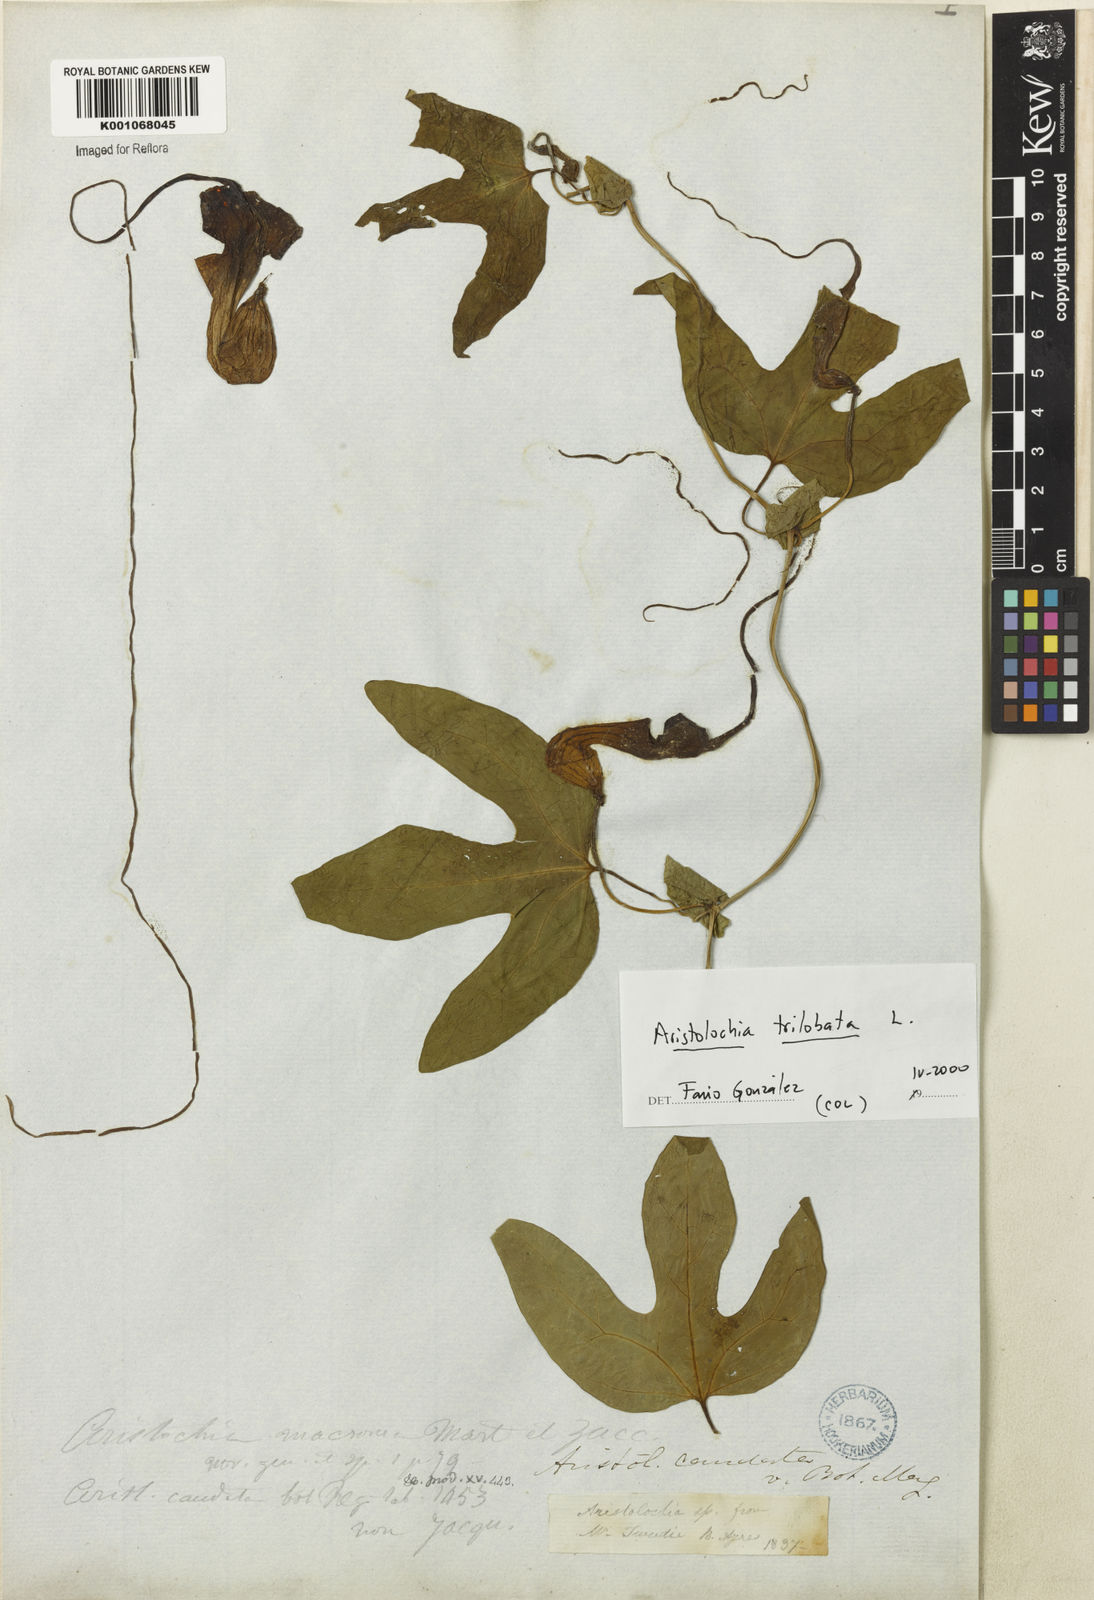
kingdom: Plantae
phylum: Tracheophyta
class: Magnoliopsida
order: Piperales
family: Aristolochiaceae
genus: Aristolochia
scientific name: Aristolochia trilobata
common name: Dutchman's pipe
